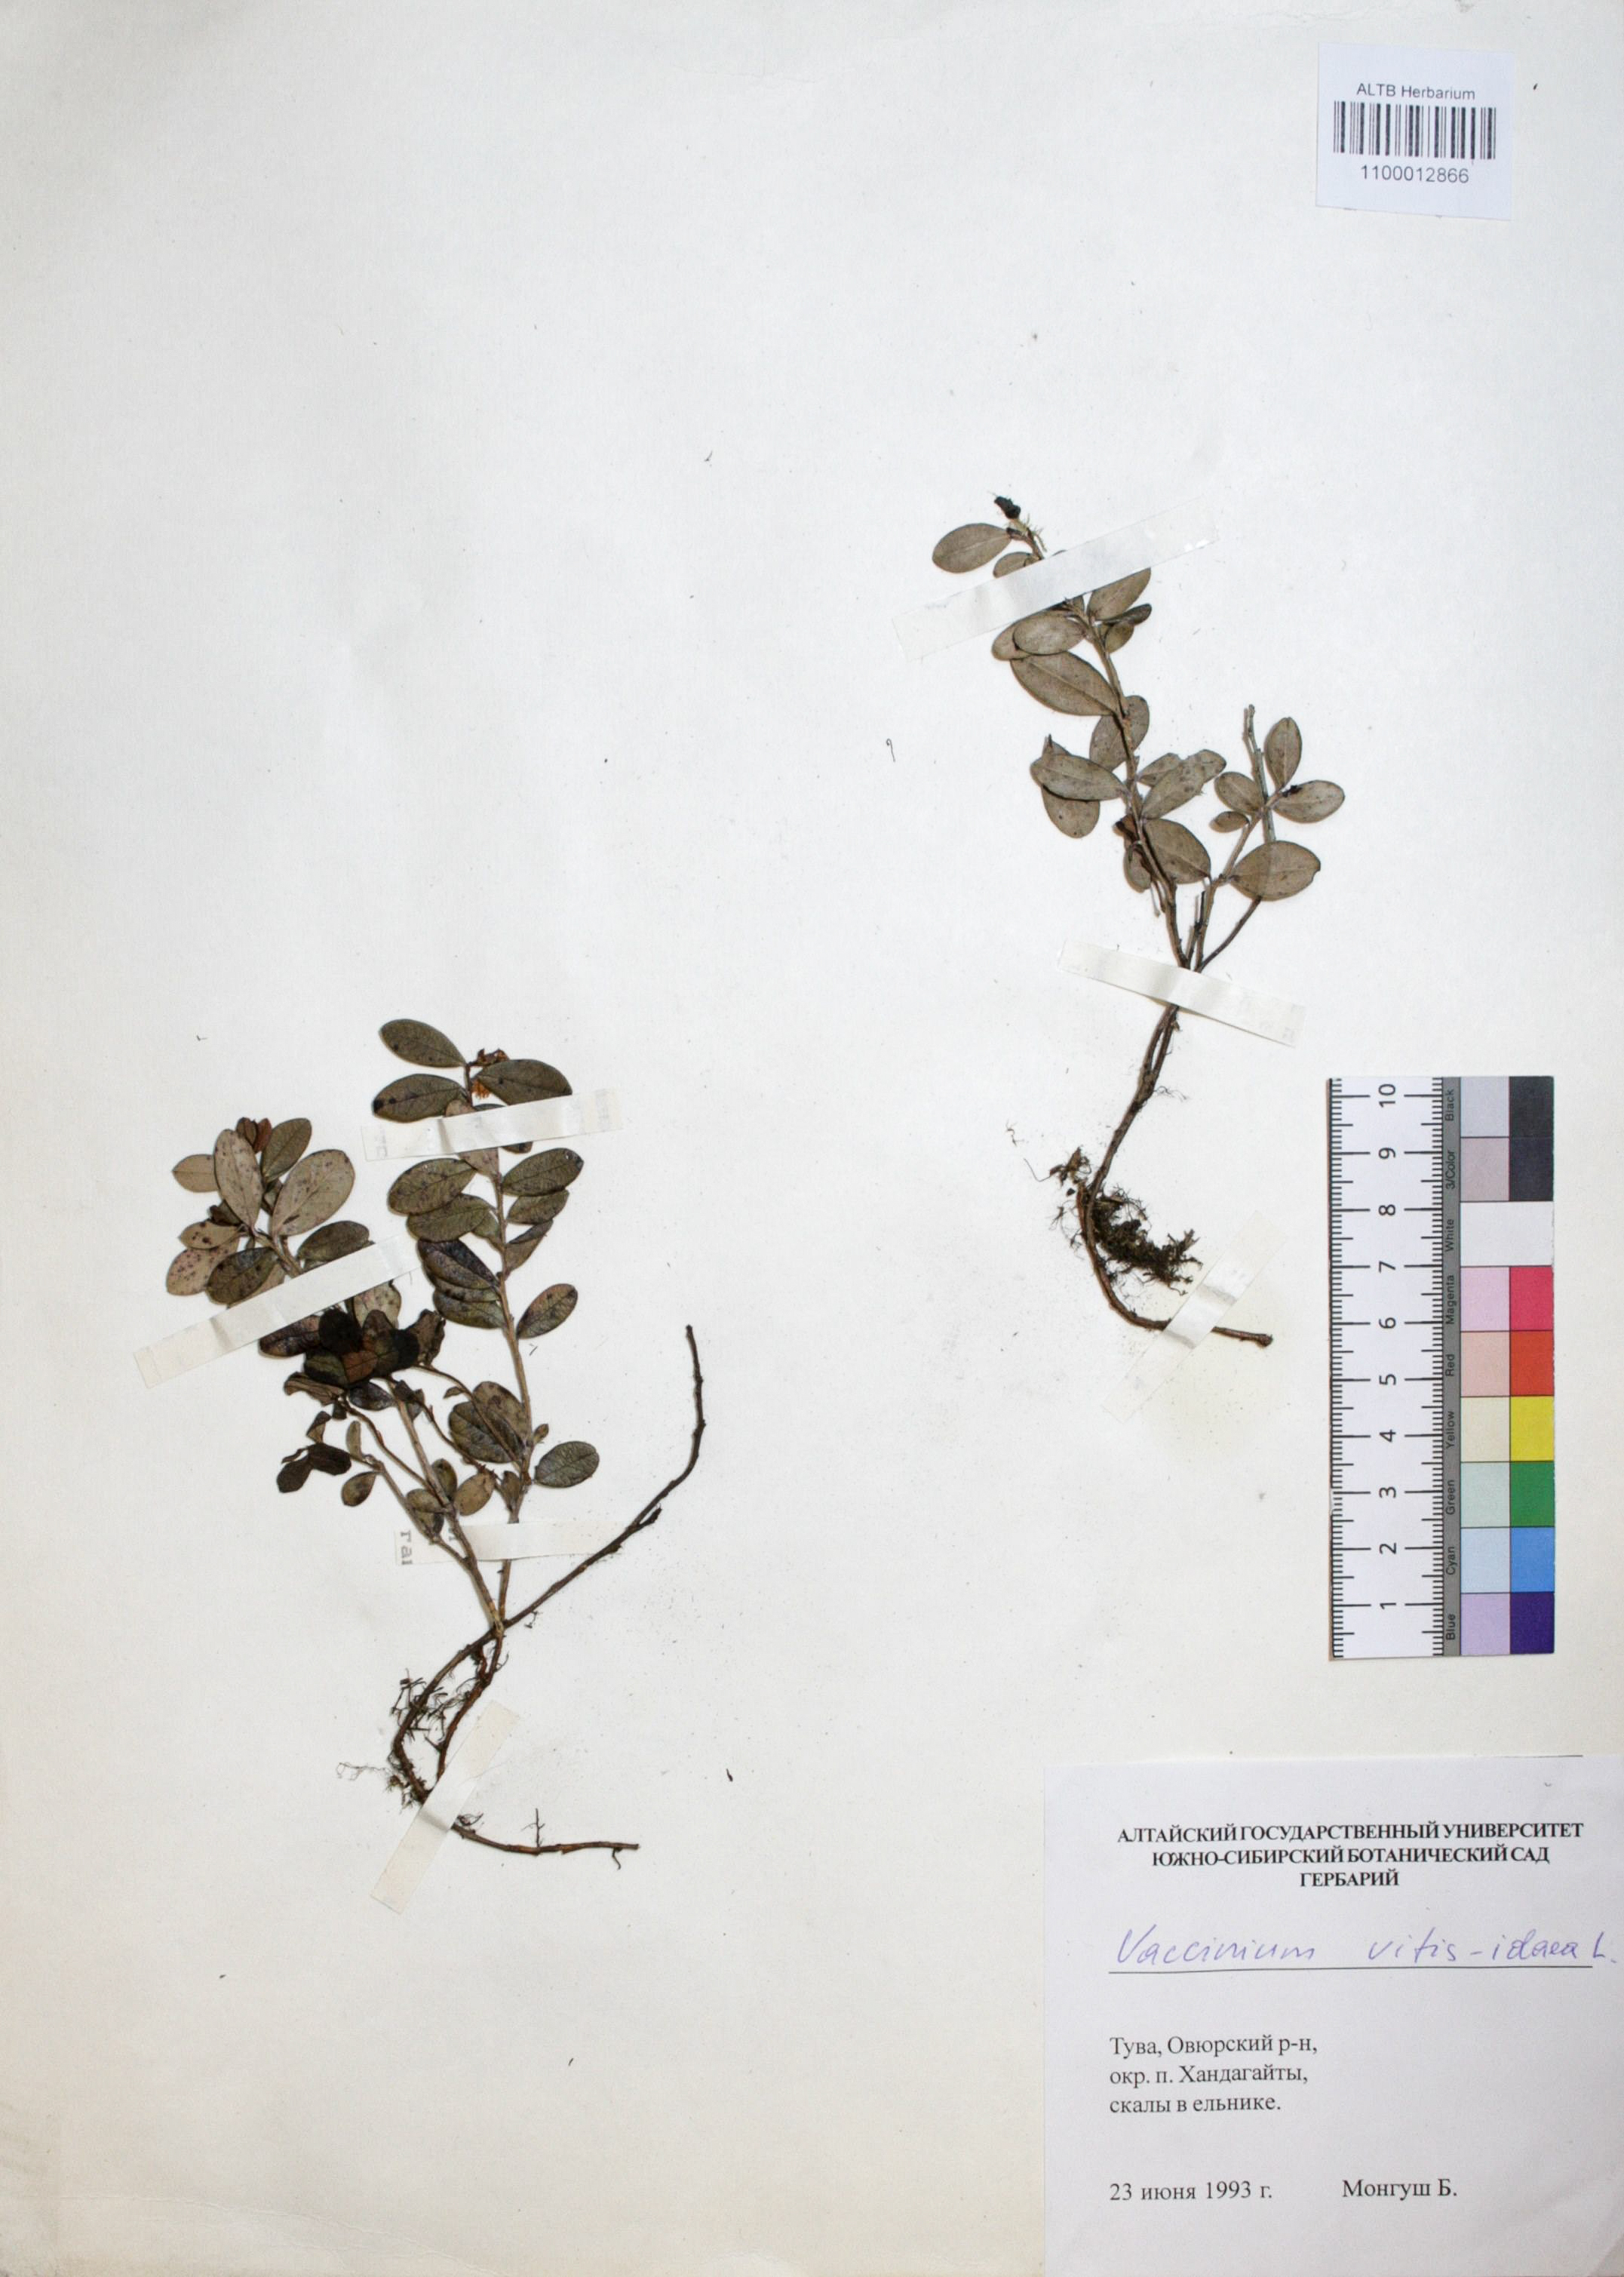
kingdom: Plantae
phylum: Tracheophyta
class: Magnoliopsida
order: Ericales
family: Ericaceae
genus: Vaccinium
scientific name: Vaccinium vitis-idaea
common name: Cowberry
